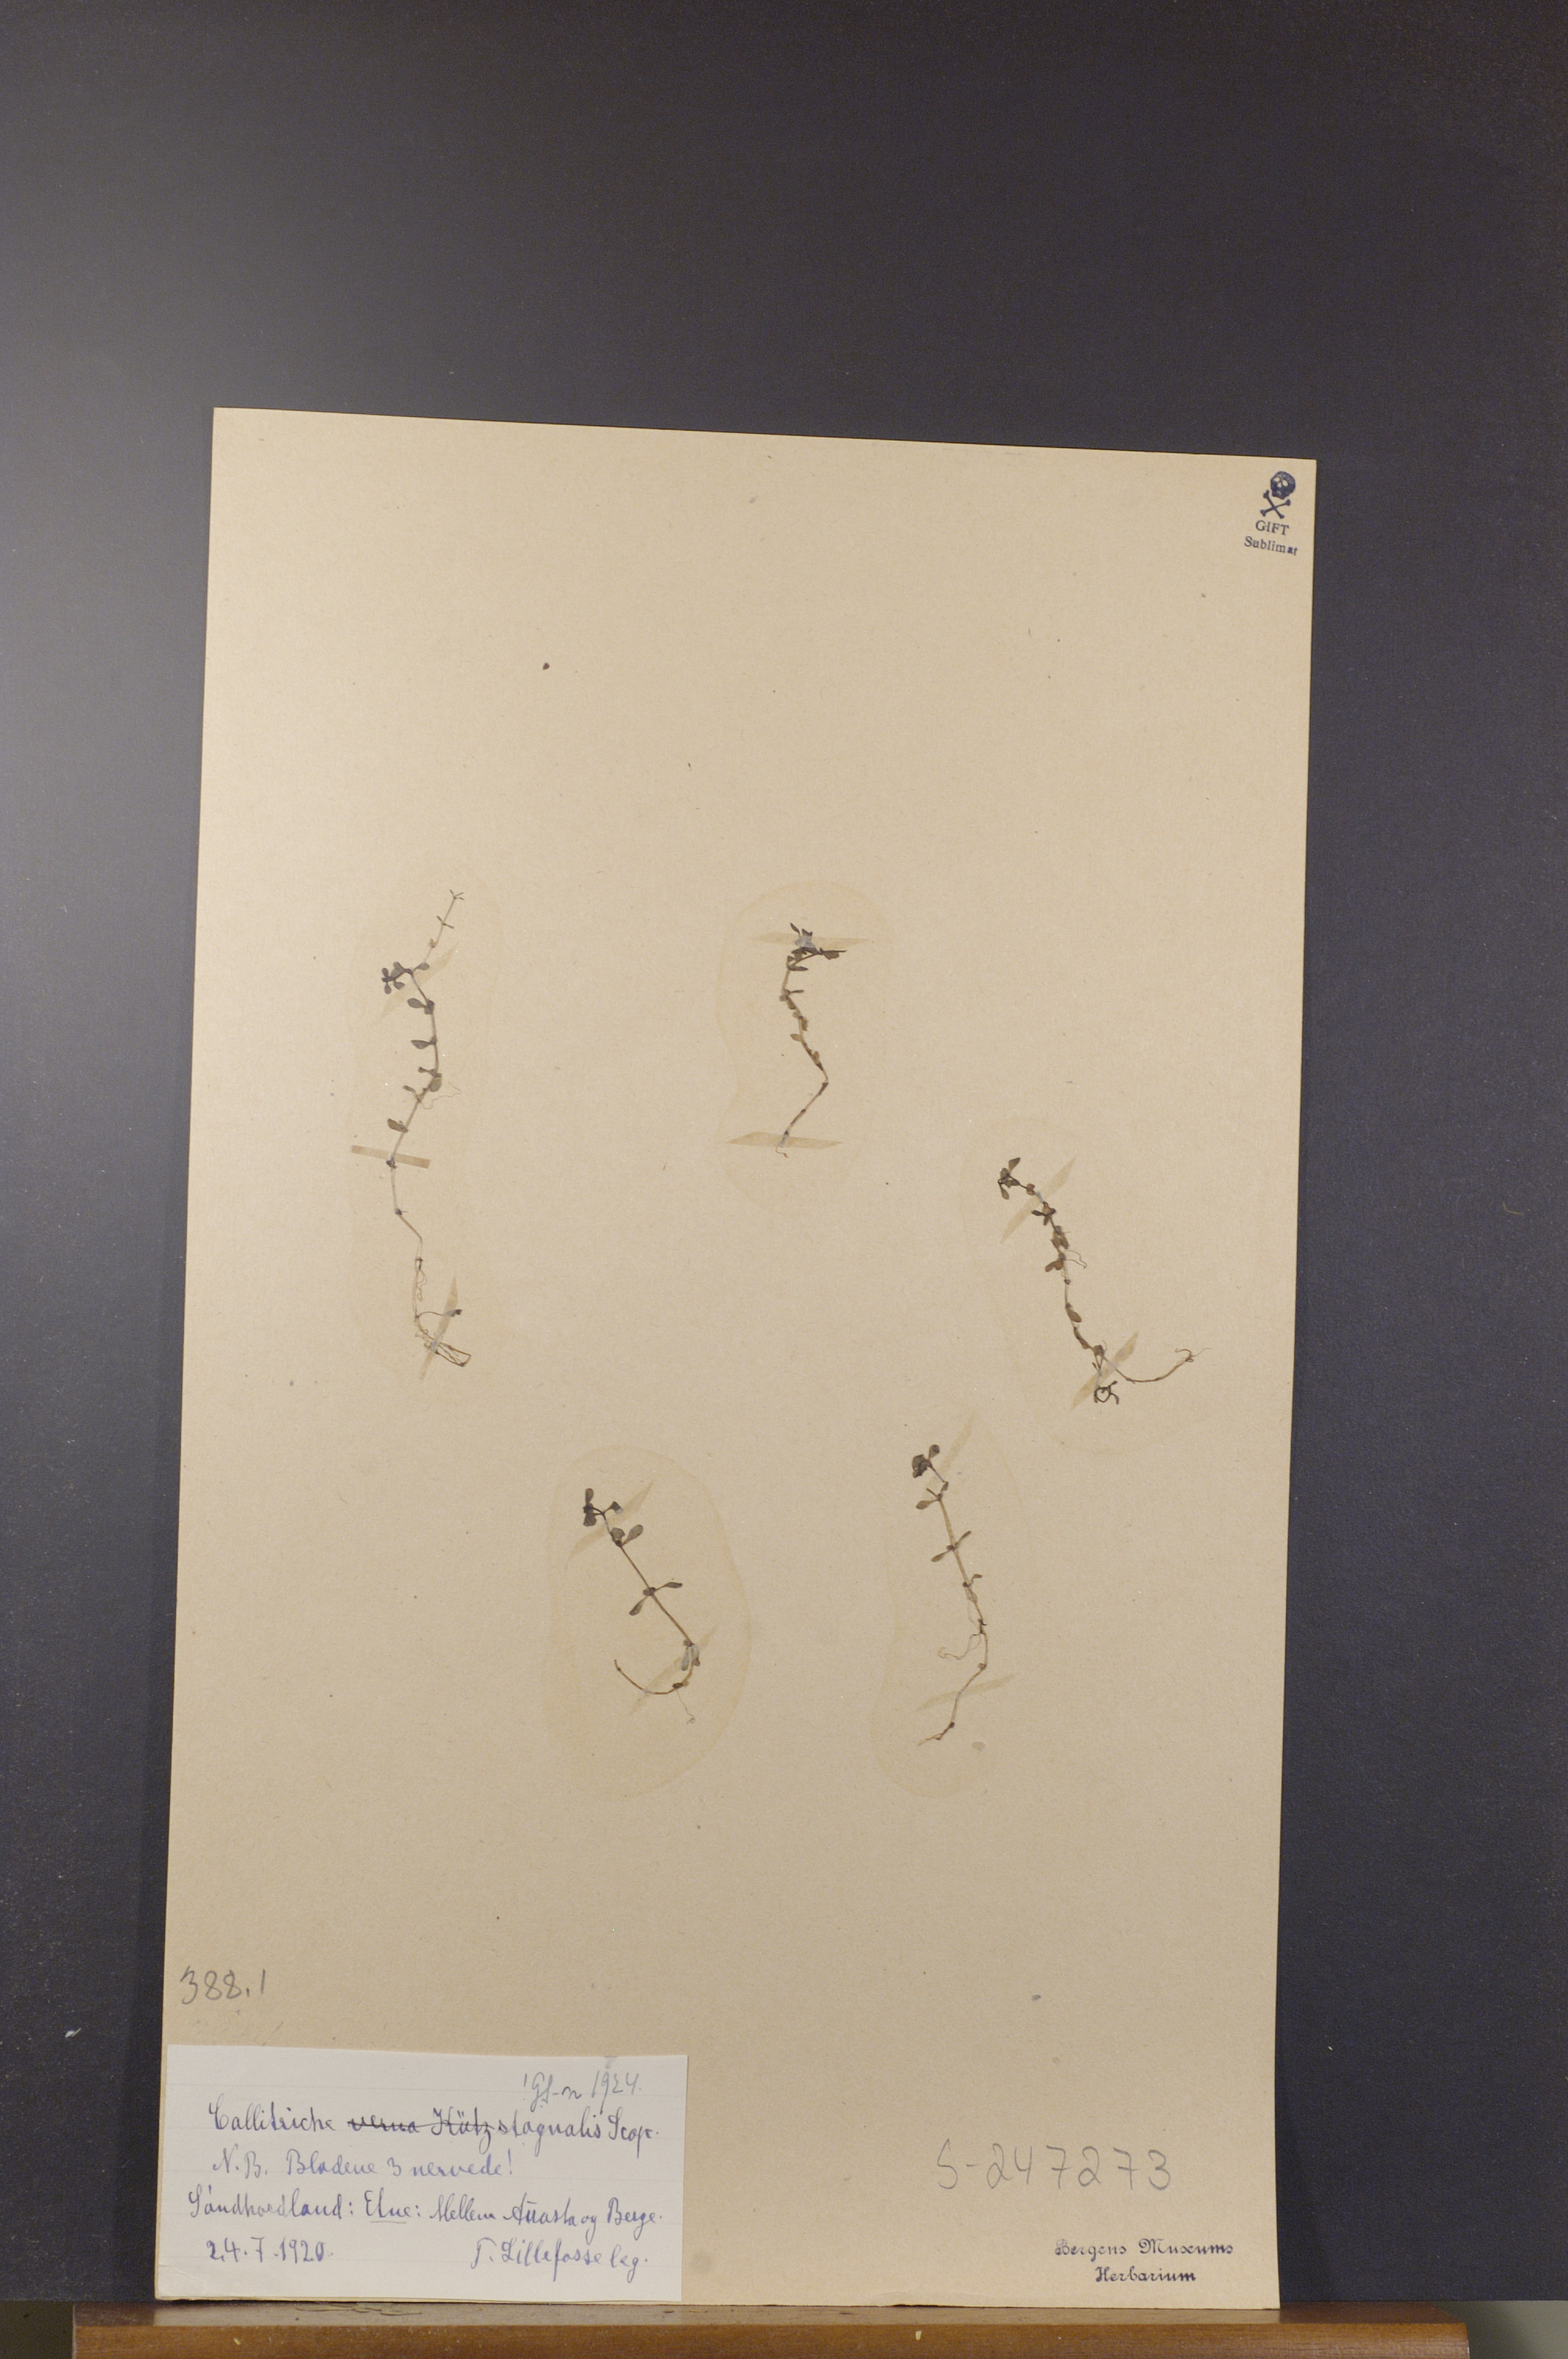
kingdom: Plantae
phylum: Tracheophyta
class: Magnoliopsida
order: Lamiales
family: Plantaginaceae
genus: Callitriche
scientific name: Callitriche stagnalis
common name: Common water-starwort
